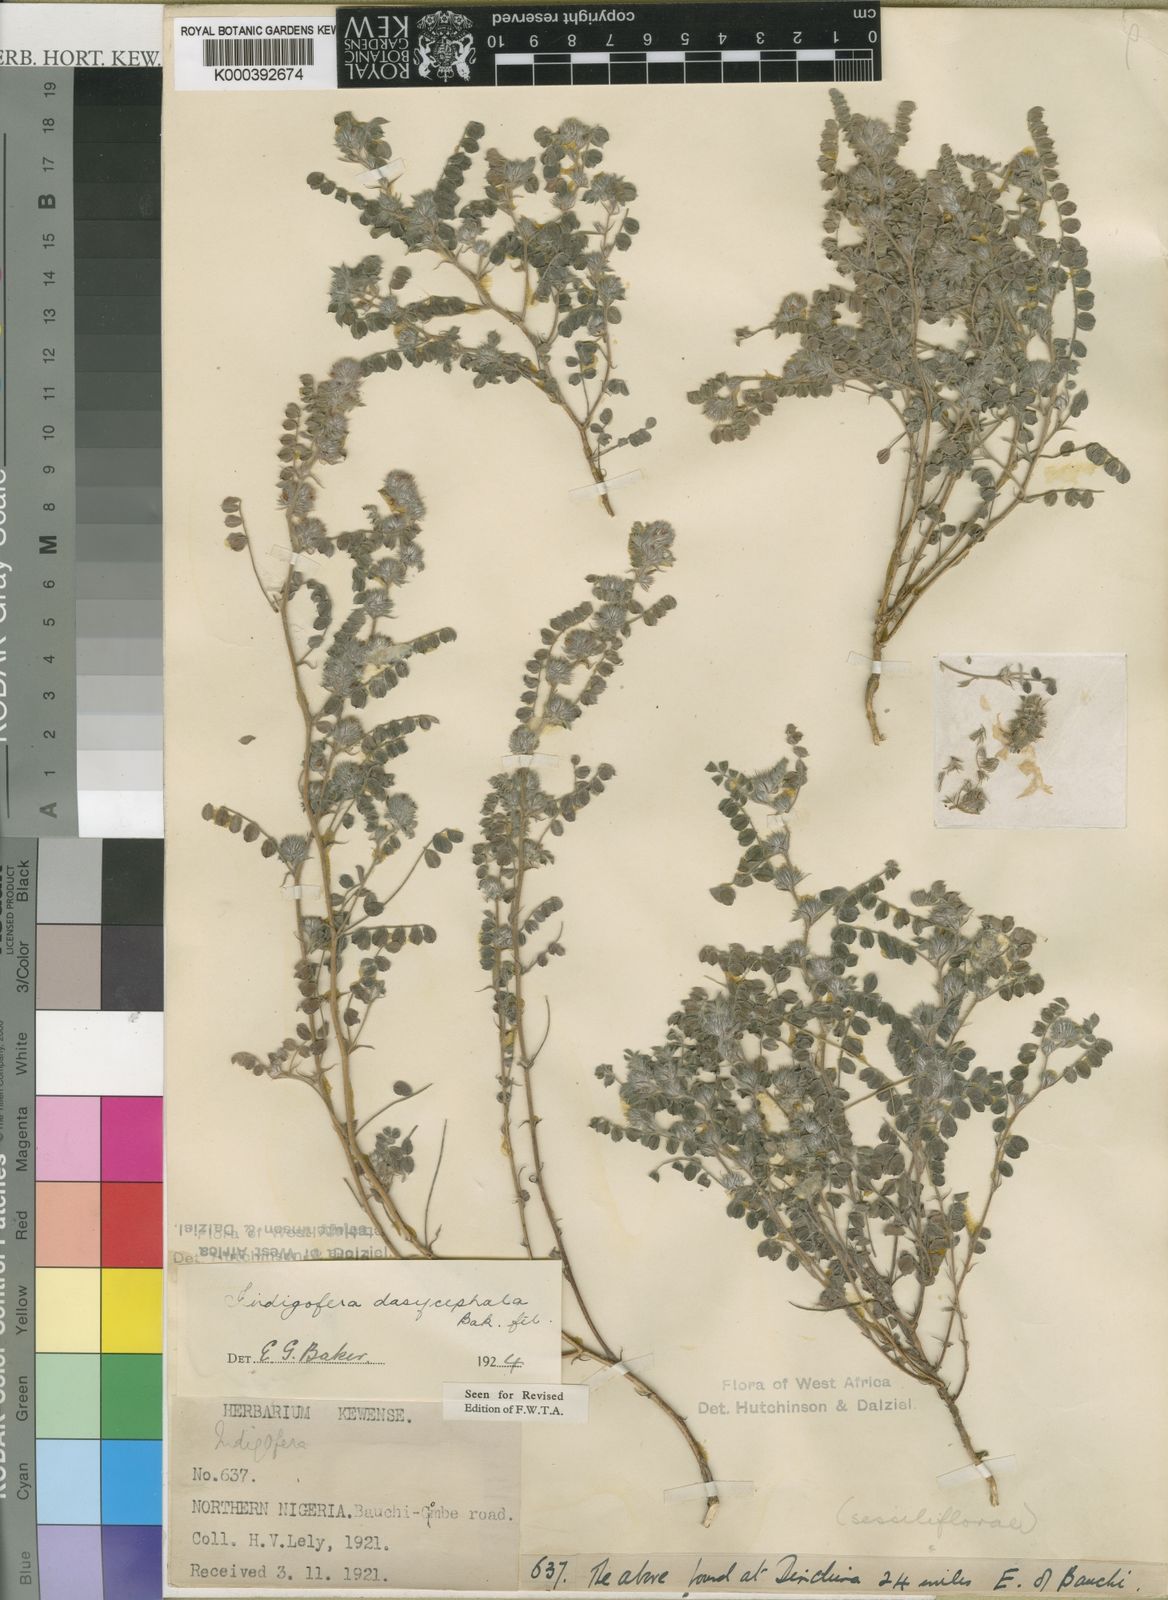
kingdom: Plantae
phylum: Tracheophyta
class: Magnoliopsida
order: Fabales
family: Fabaceae
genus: Indigofera
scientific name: Indigofera dasycephala
